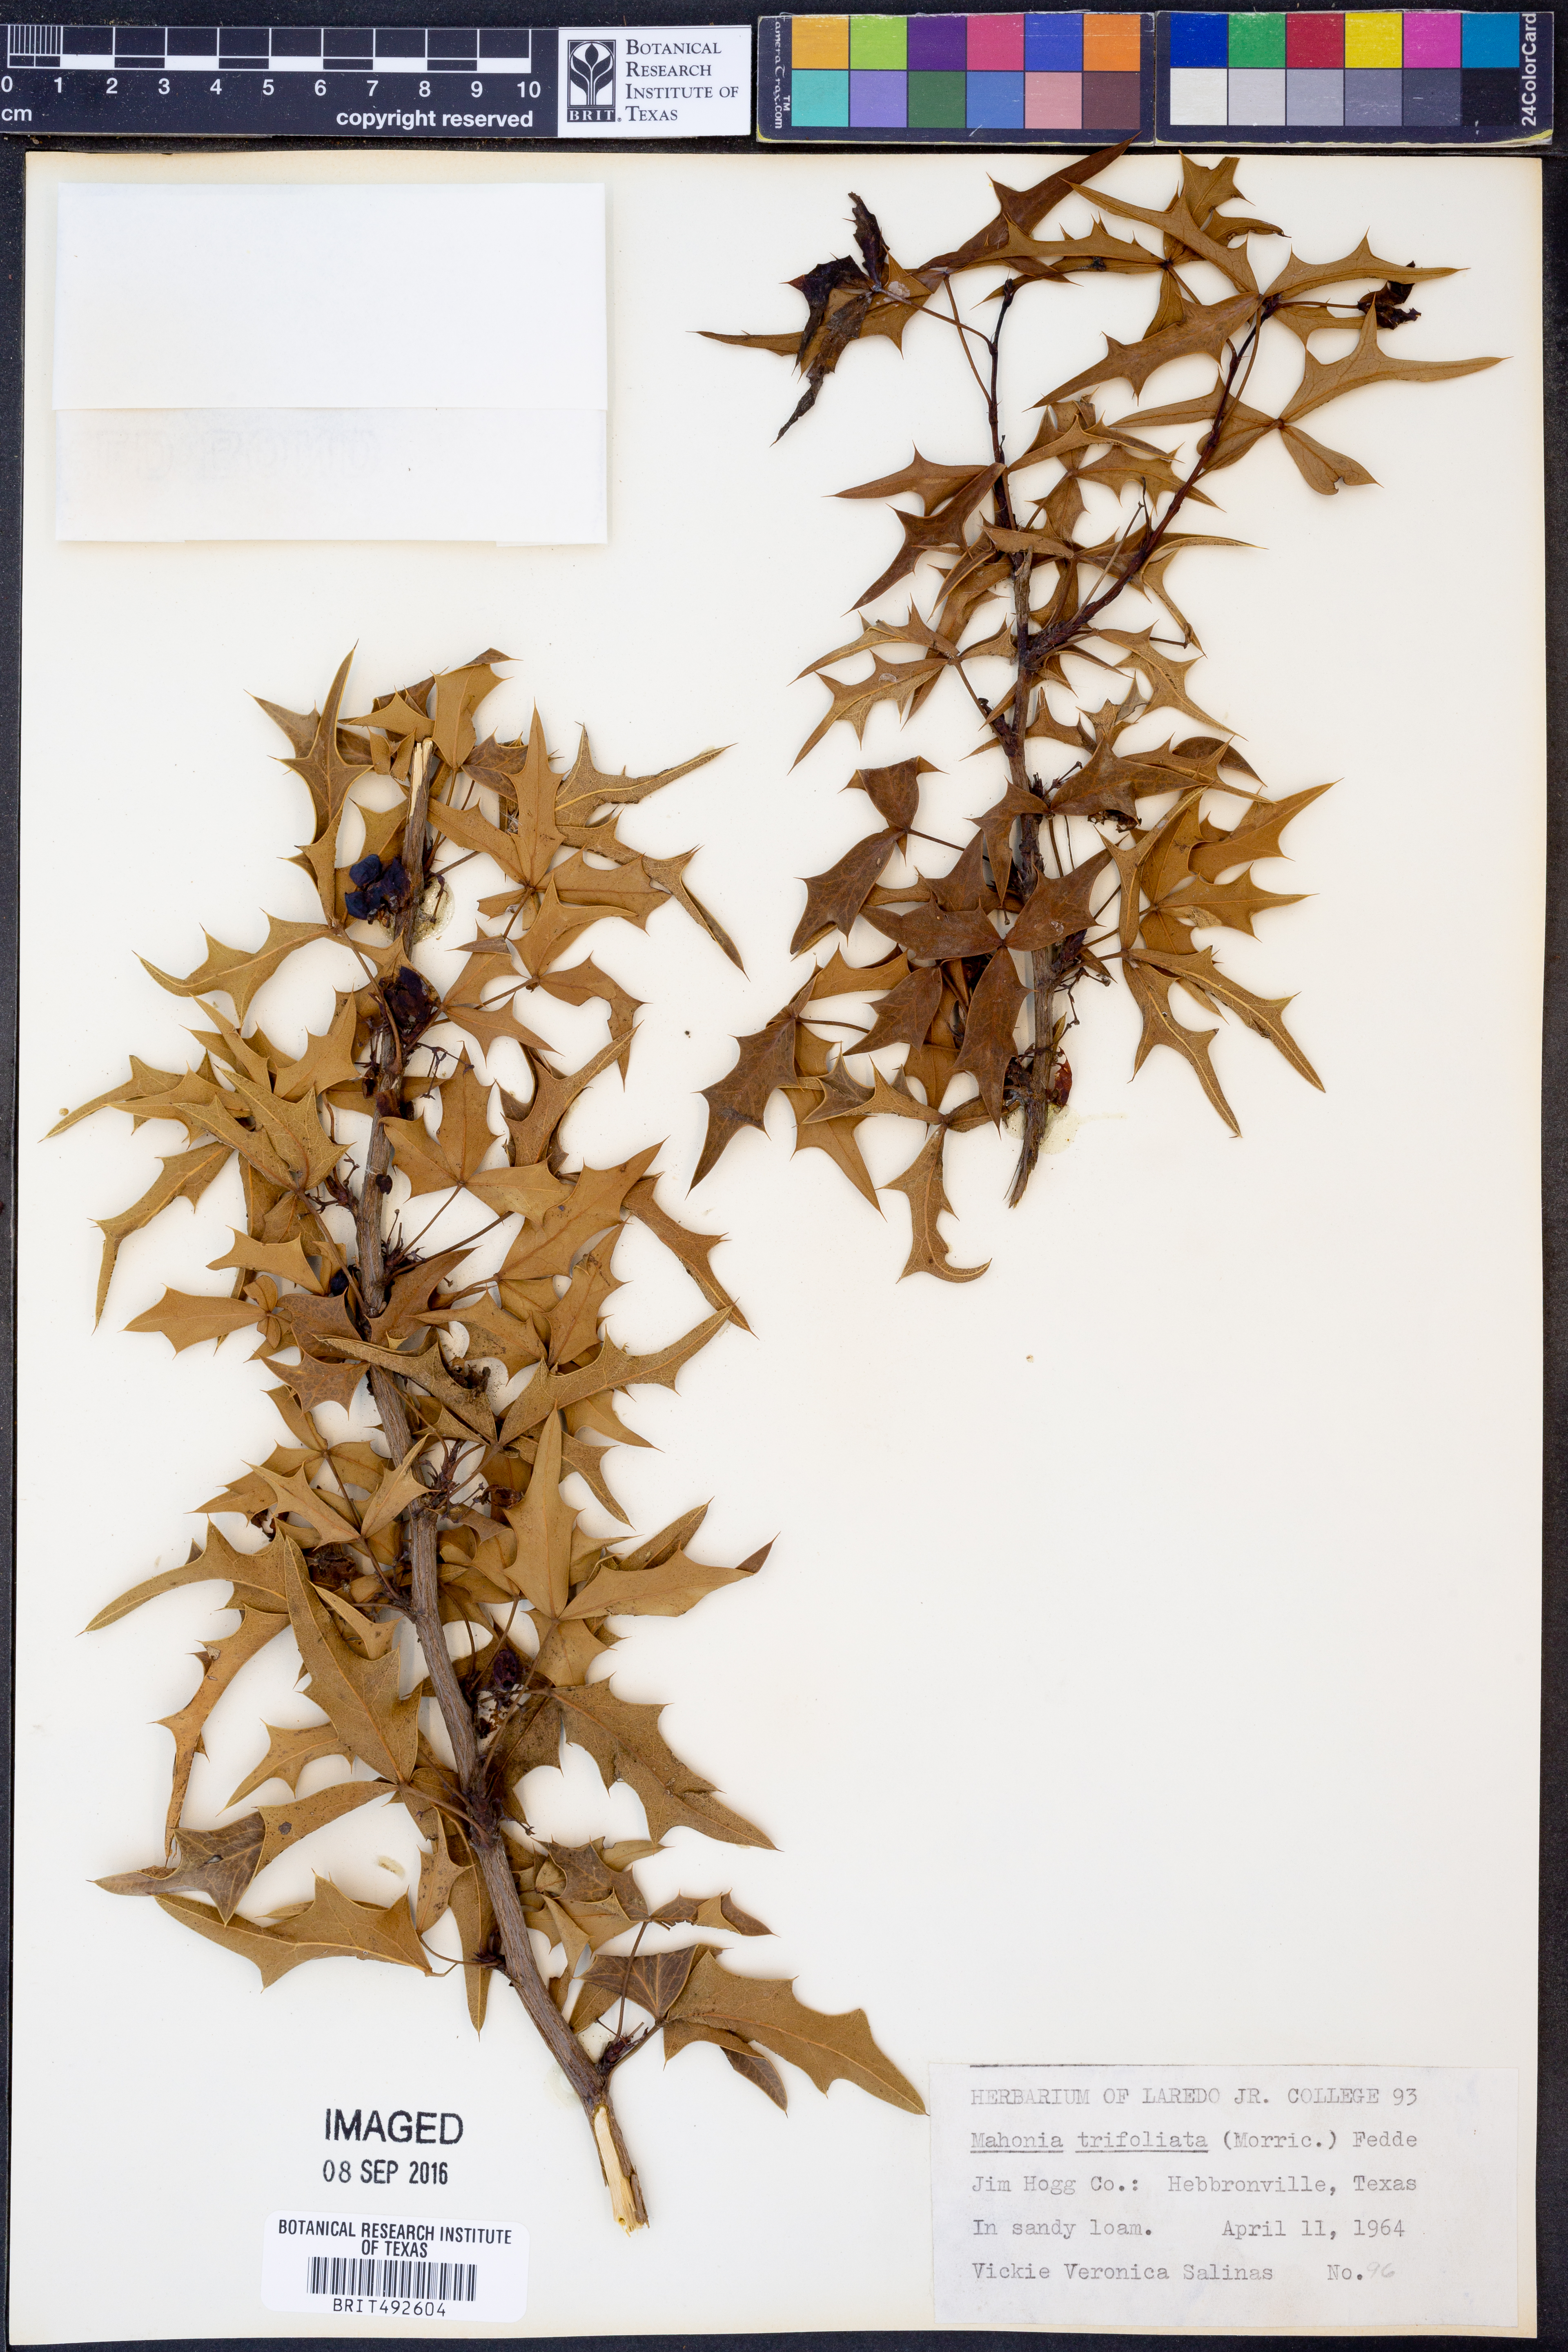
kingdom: Plantae
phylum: Tracheophyta
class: Magnoliopsida
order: Ranunculales
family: Berberidaceae
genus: Mahonia
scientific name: Mahonia trifolia
